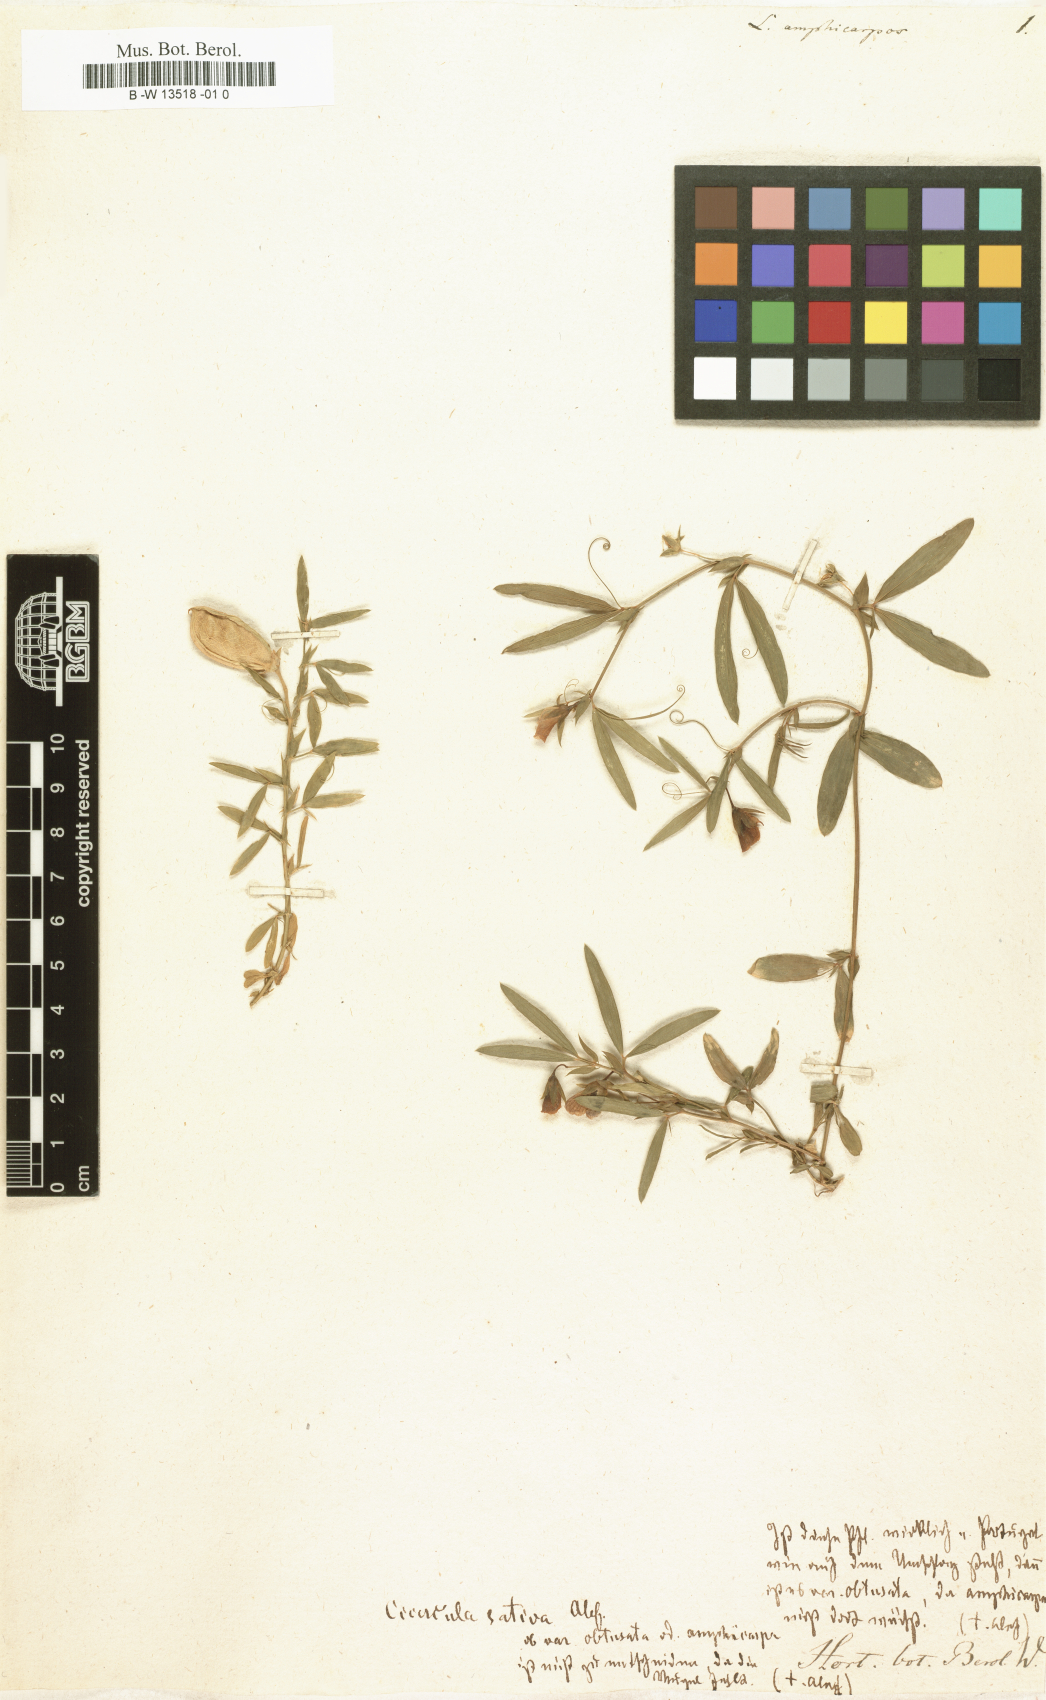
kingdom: Plantae
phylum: Tracheophyta
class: Magnoliopsida
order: Fabales
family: Fabaceae
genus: Lathyrus
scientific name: Lathyrus amphicarpos
